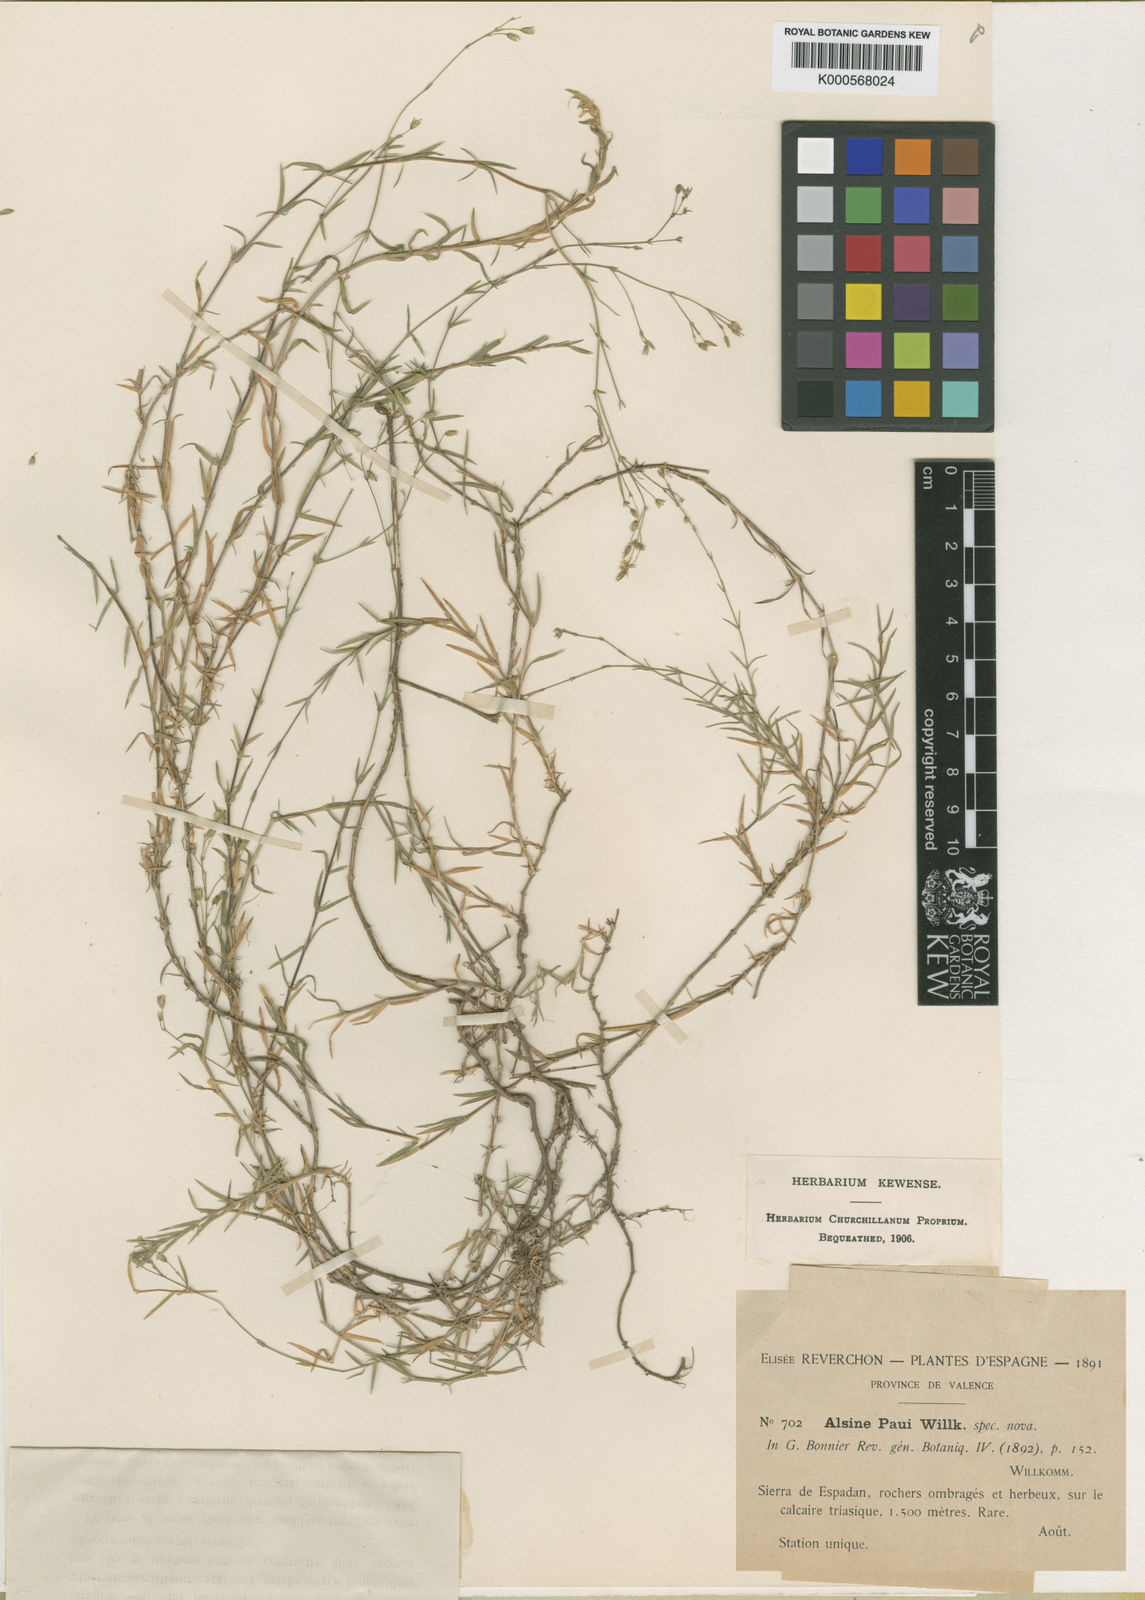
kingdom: Plantae
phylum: Tracheophyta
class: Magnoliopsida
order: Caryophyllales
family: Caryophyllaceae
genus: Facchinia
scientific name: Facchinia valentina
